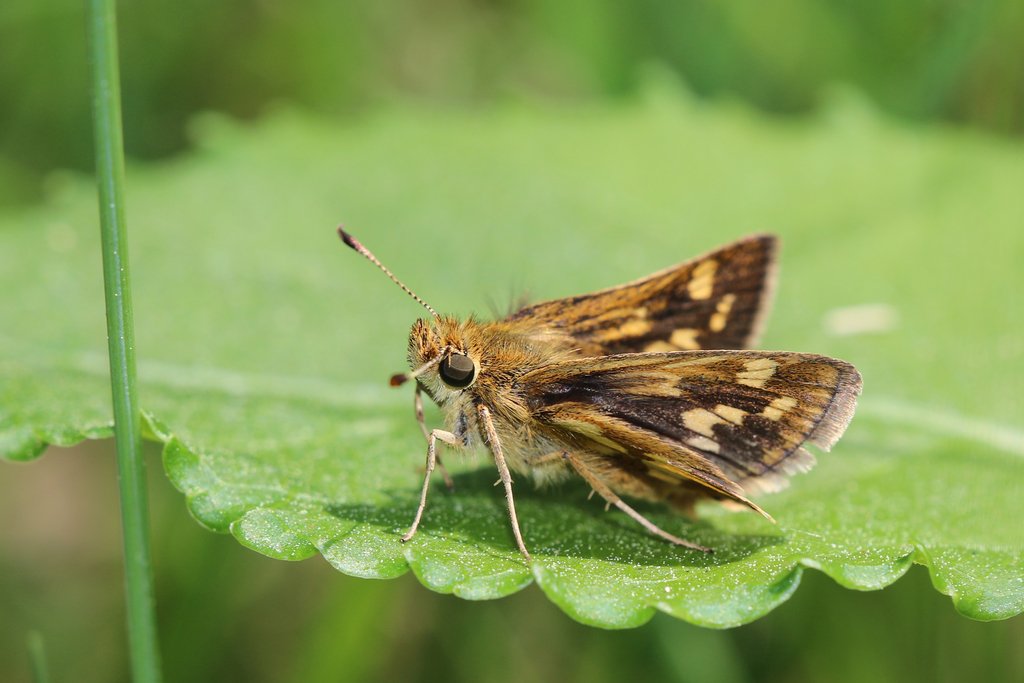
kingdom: Animalia
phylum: Arthropoda
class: Insecta
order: Lepidoptera
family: Hesperiidae
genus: Polites
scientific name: Polites coras
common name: Peck's Skipper
